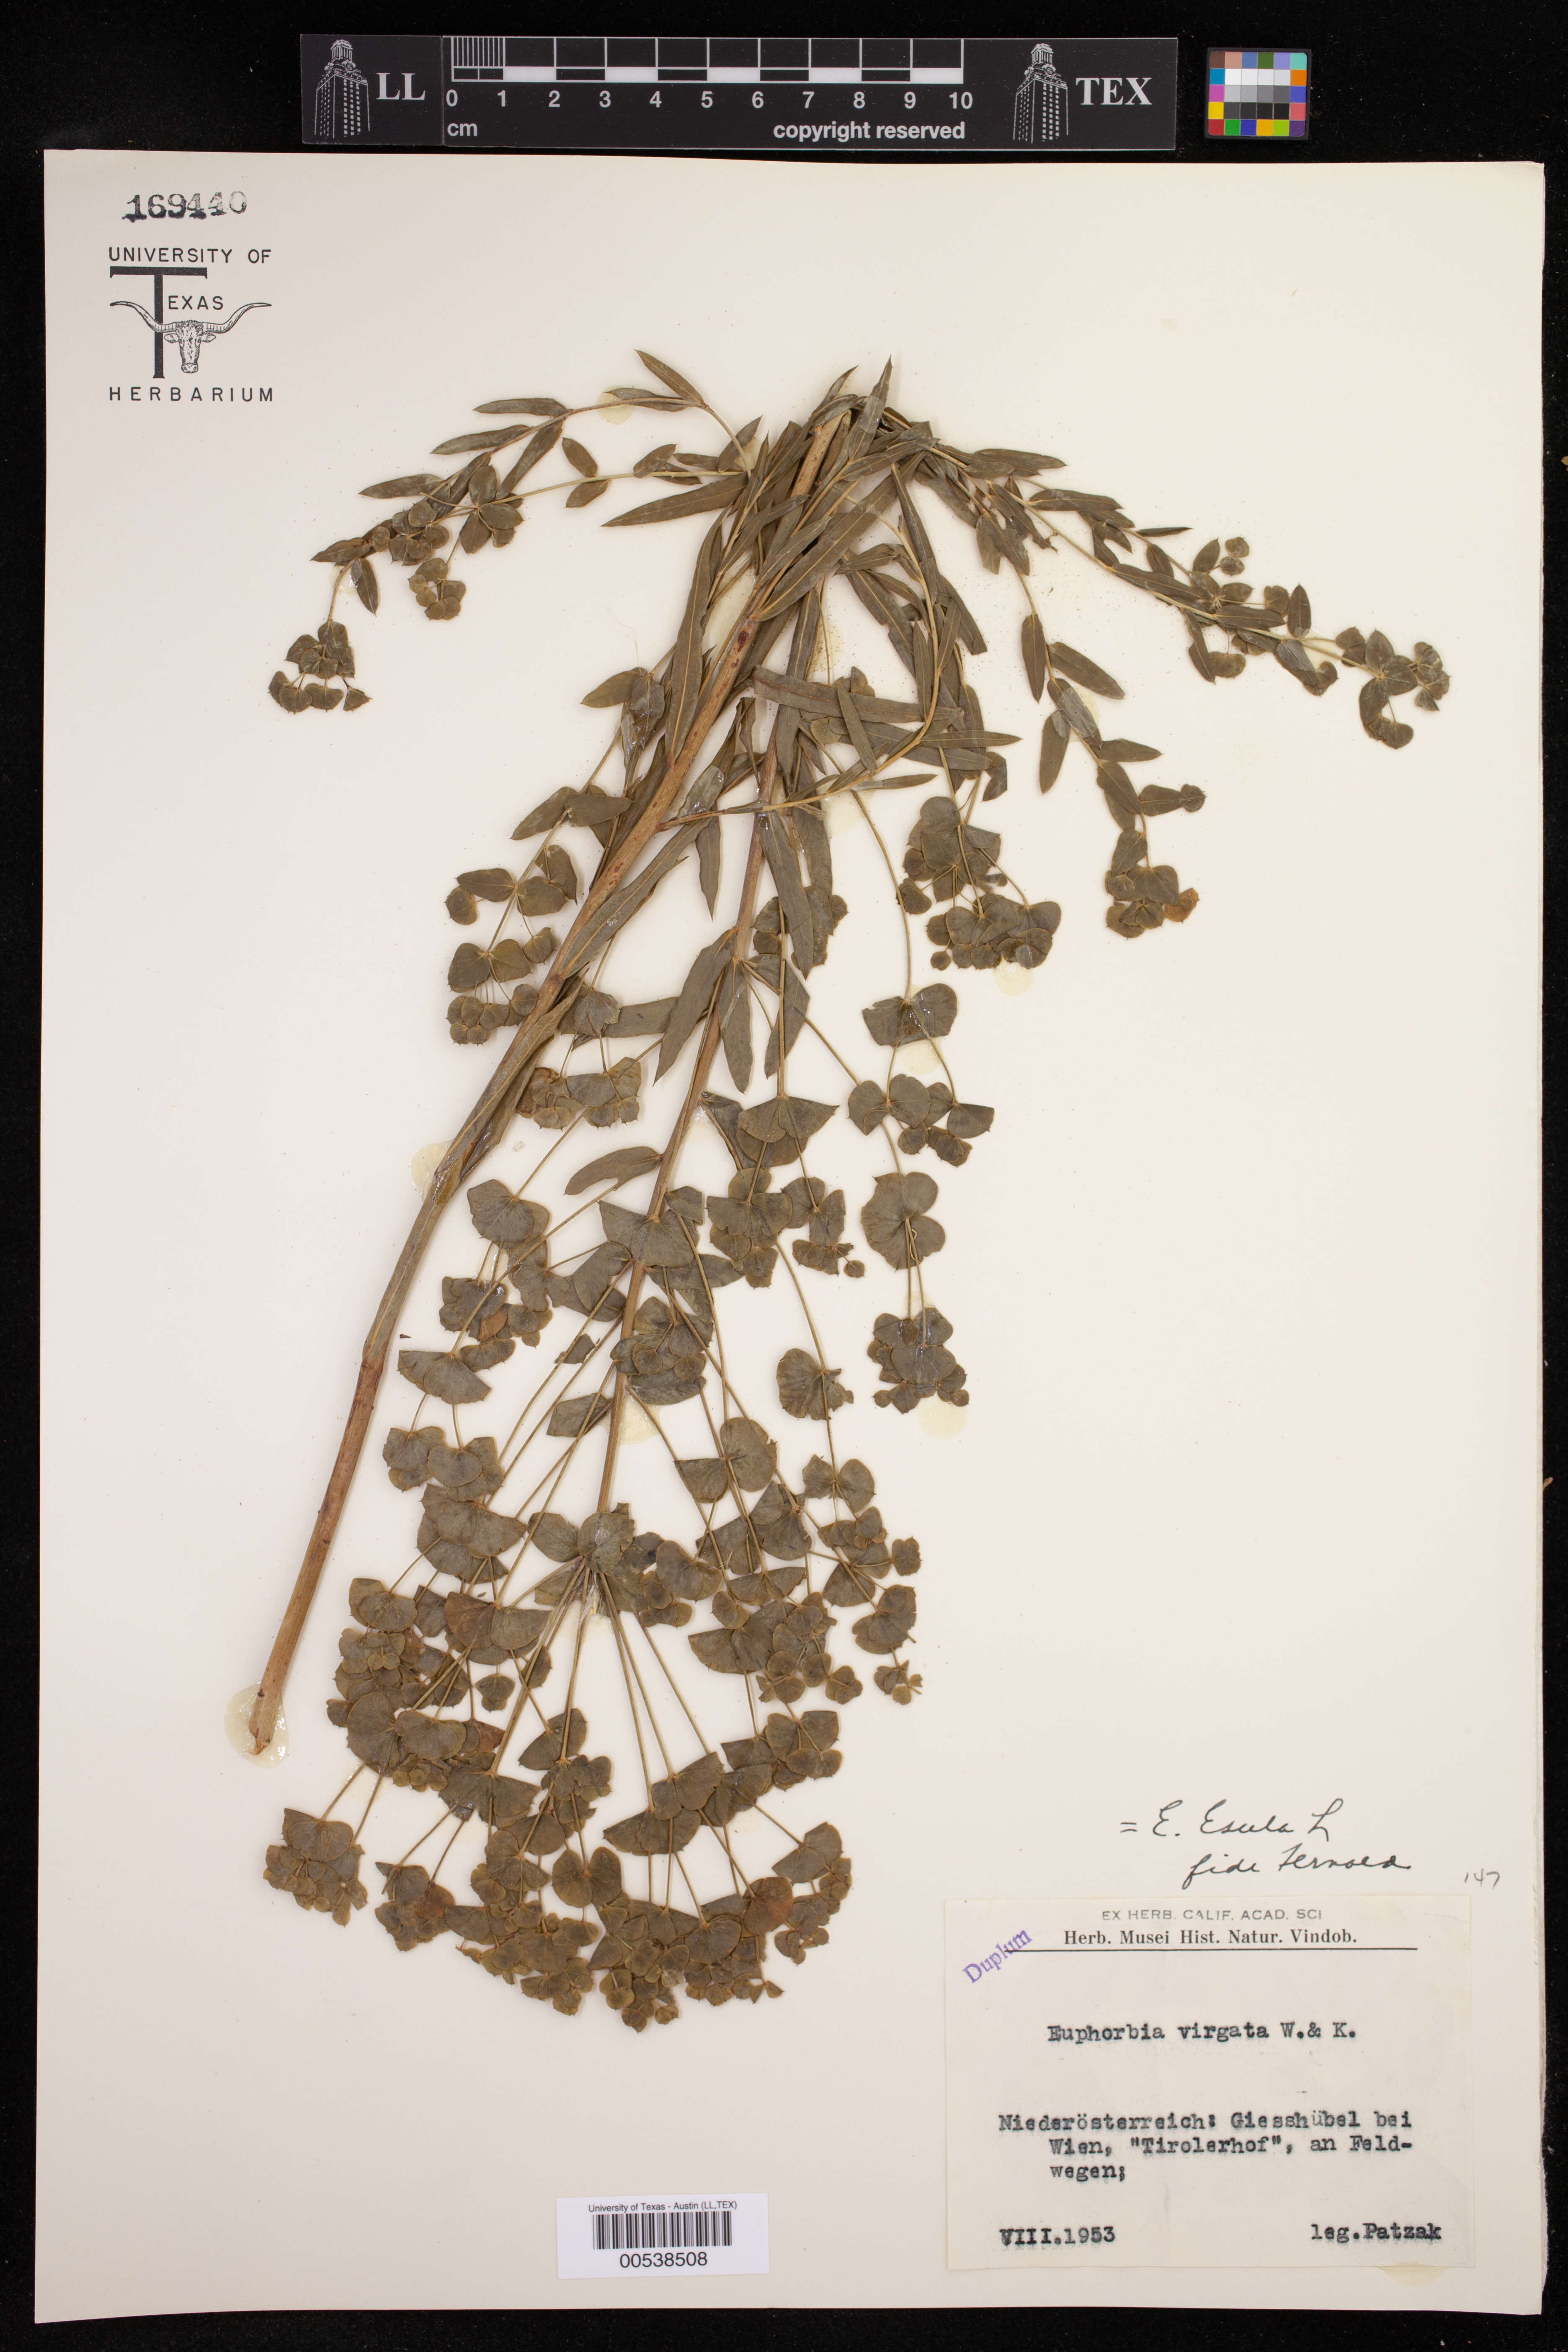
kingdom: Plantae
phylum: Tracheophyta
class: Magnoliopsida
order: Malpighiales
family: Euphorbiaceae
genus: Euphorbia
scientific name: Euphorbia esula
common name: Leafy spurge
